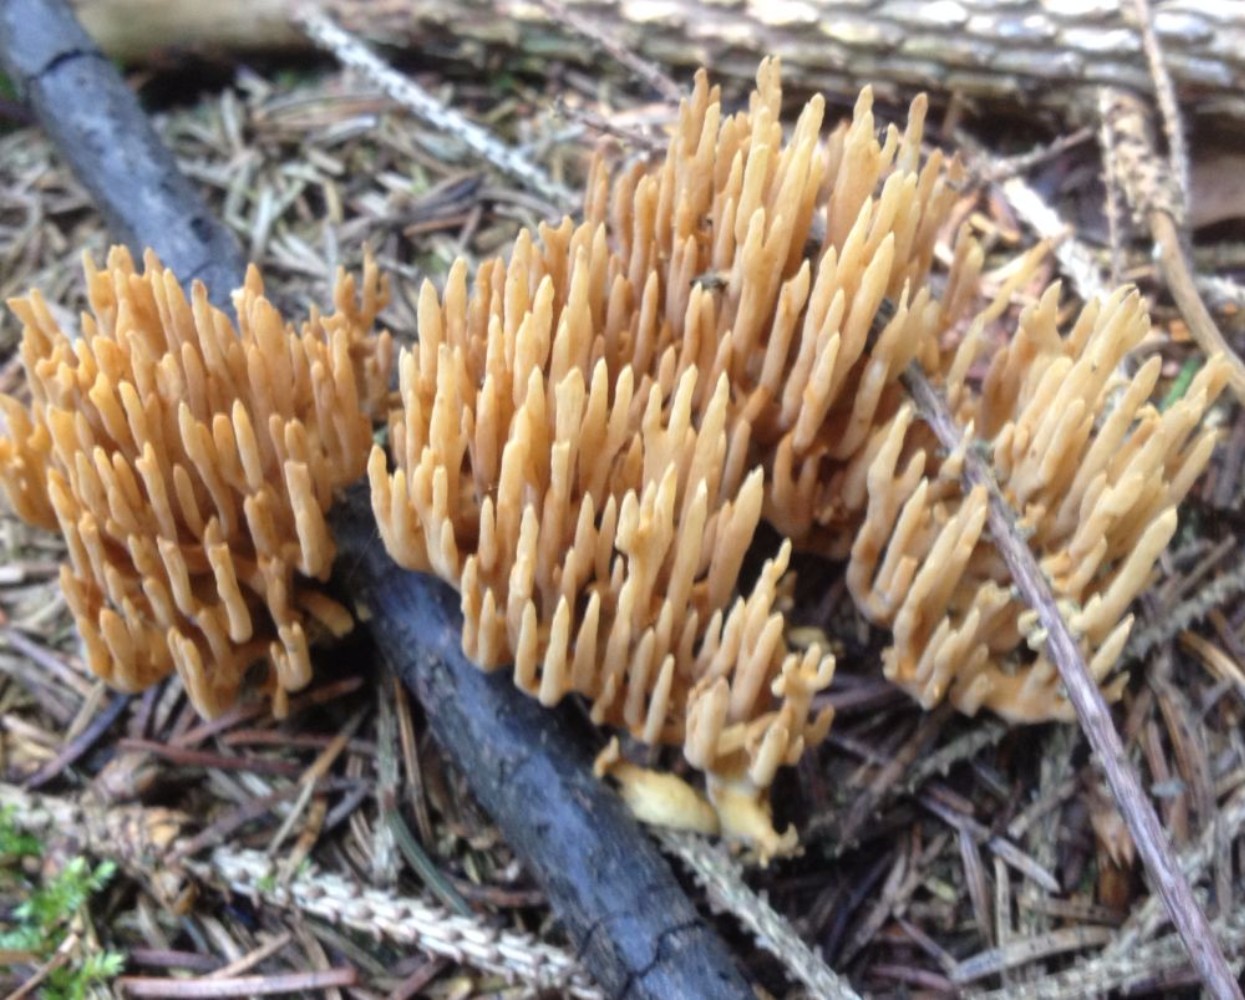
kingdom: Fungi
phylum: Basidiomycota
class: Agaricomycetes
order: Gomphales
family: Gomphaceae
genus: Phaeoclavulina
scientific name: Phaeoclavulina eumorpha
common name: gran-koralsvamp
